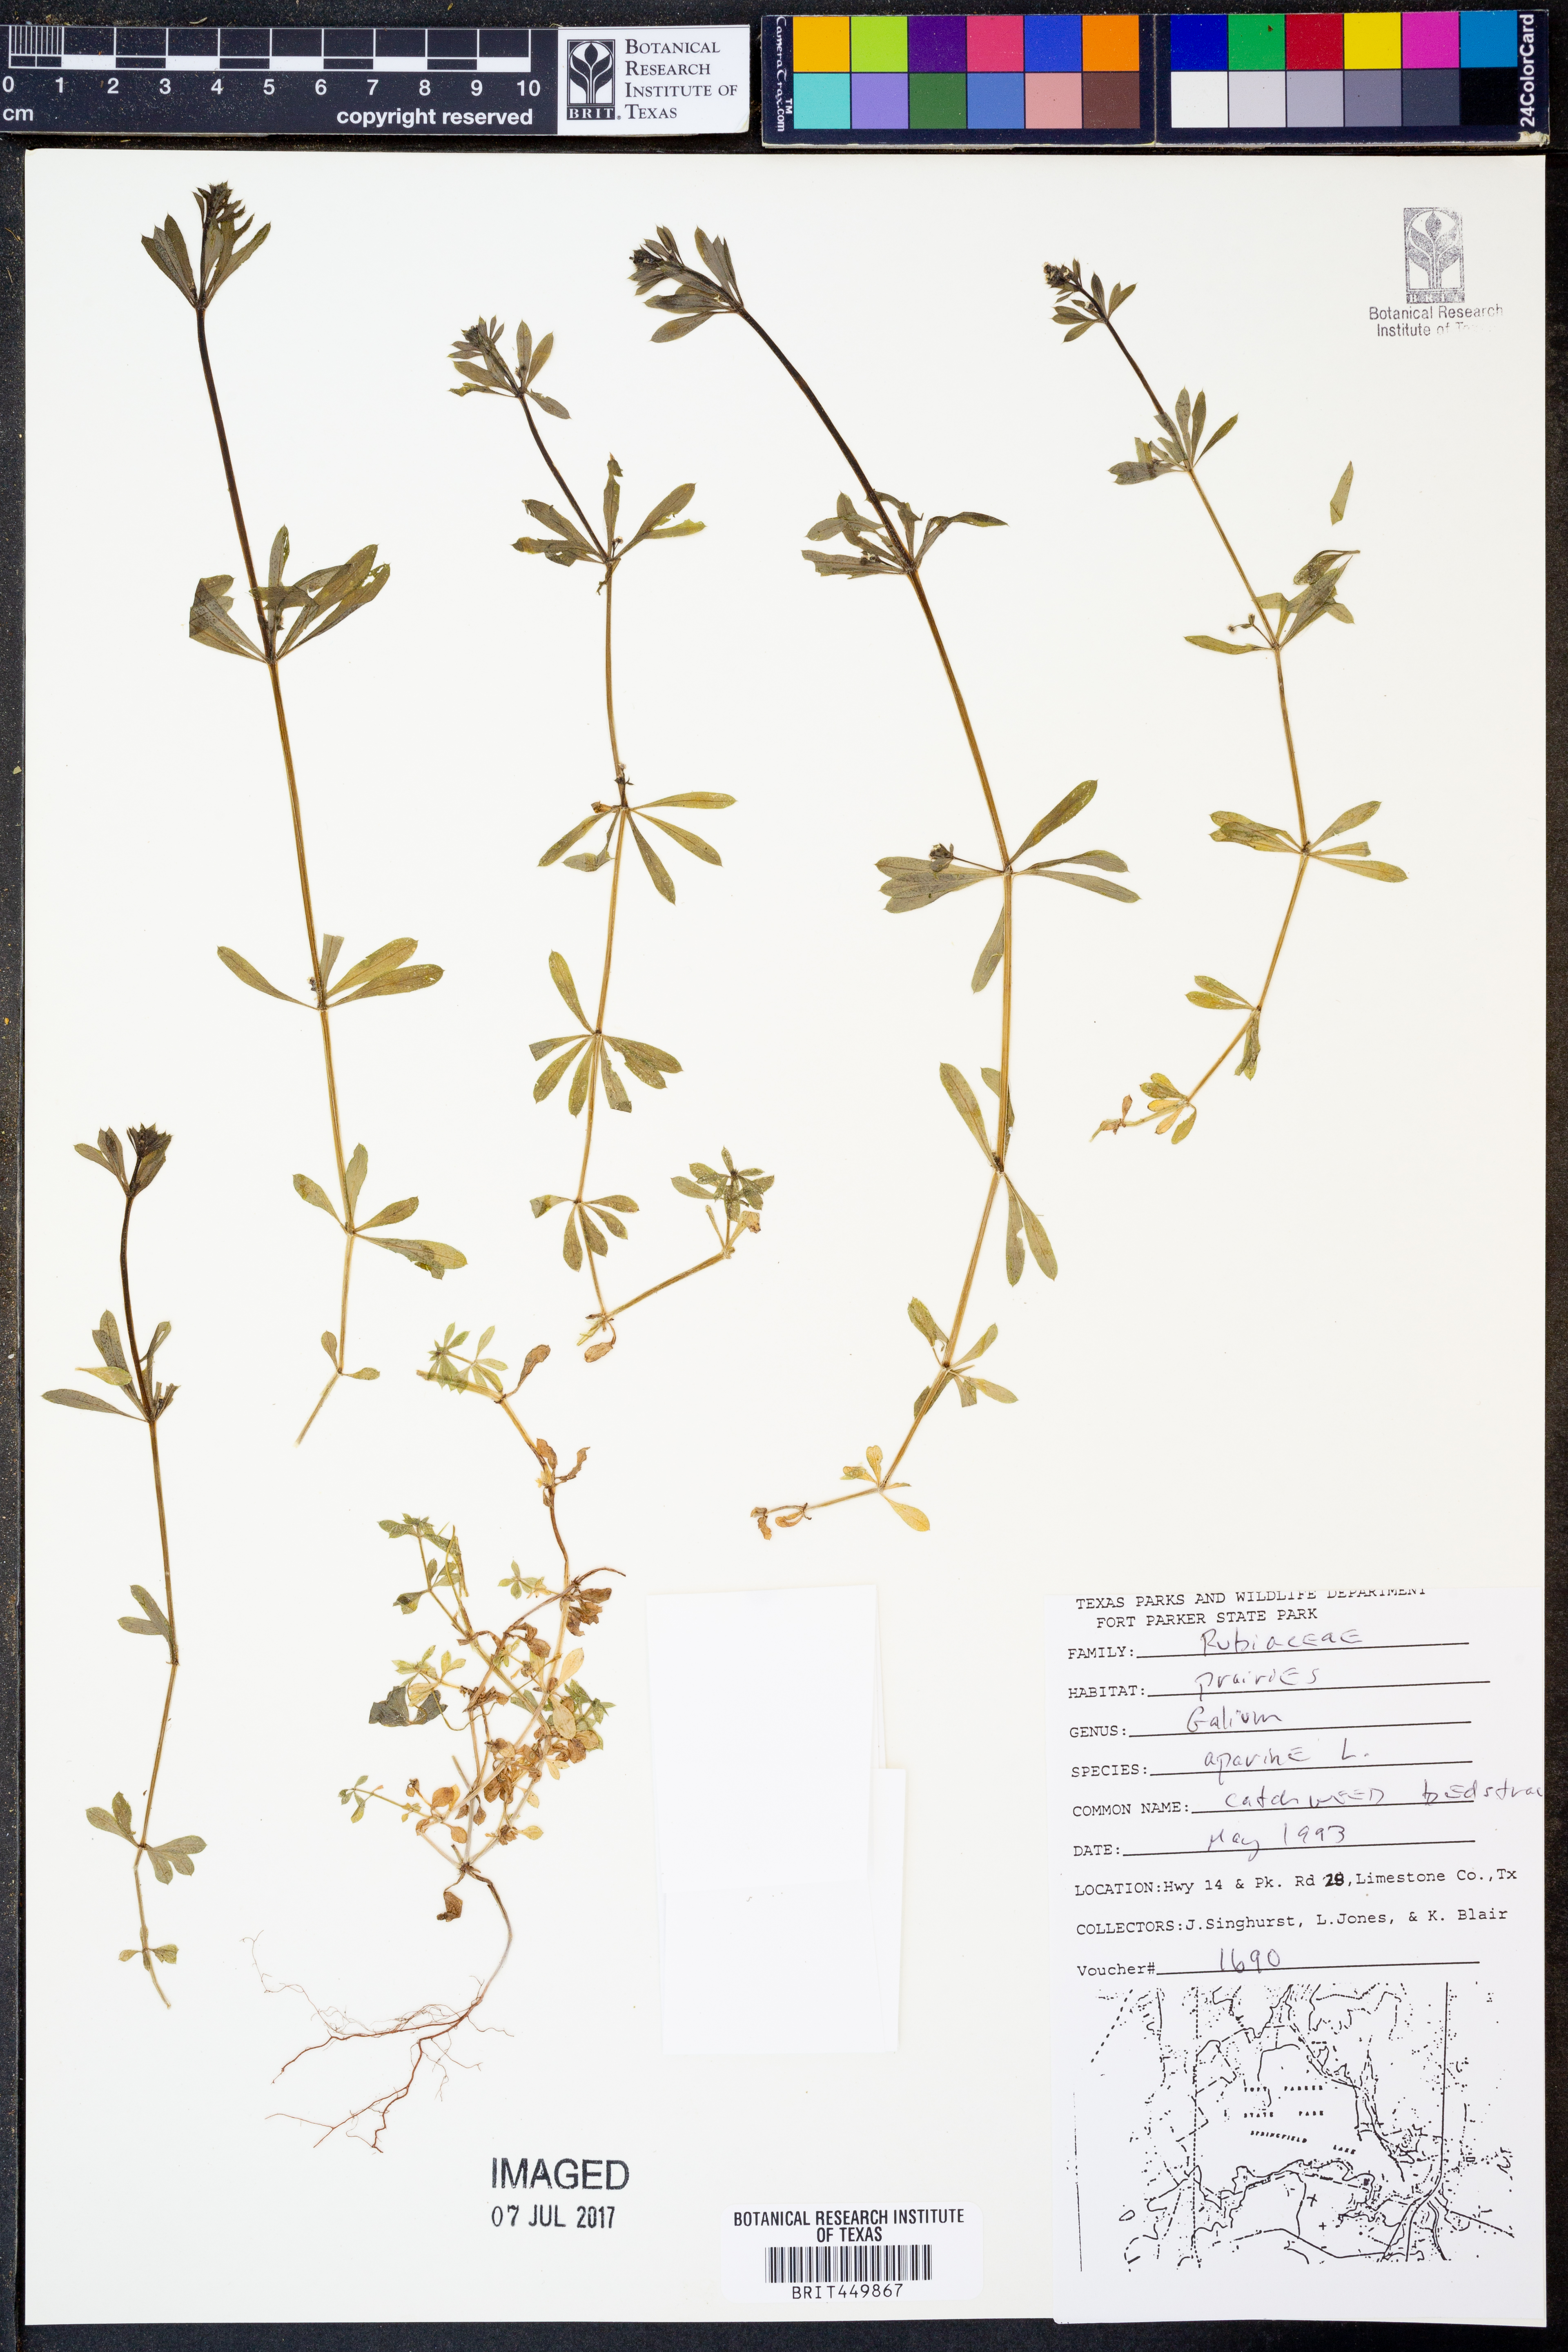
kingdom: Plantae
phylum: Tracheophyta
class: Magnoliopsida
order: Gentianales
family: Rubiaceae
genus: Galium
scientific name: Galium aparine
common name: Cleavers
